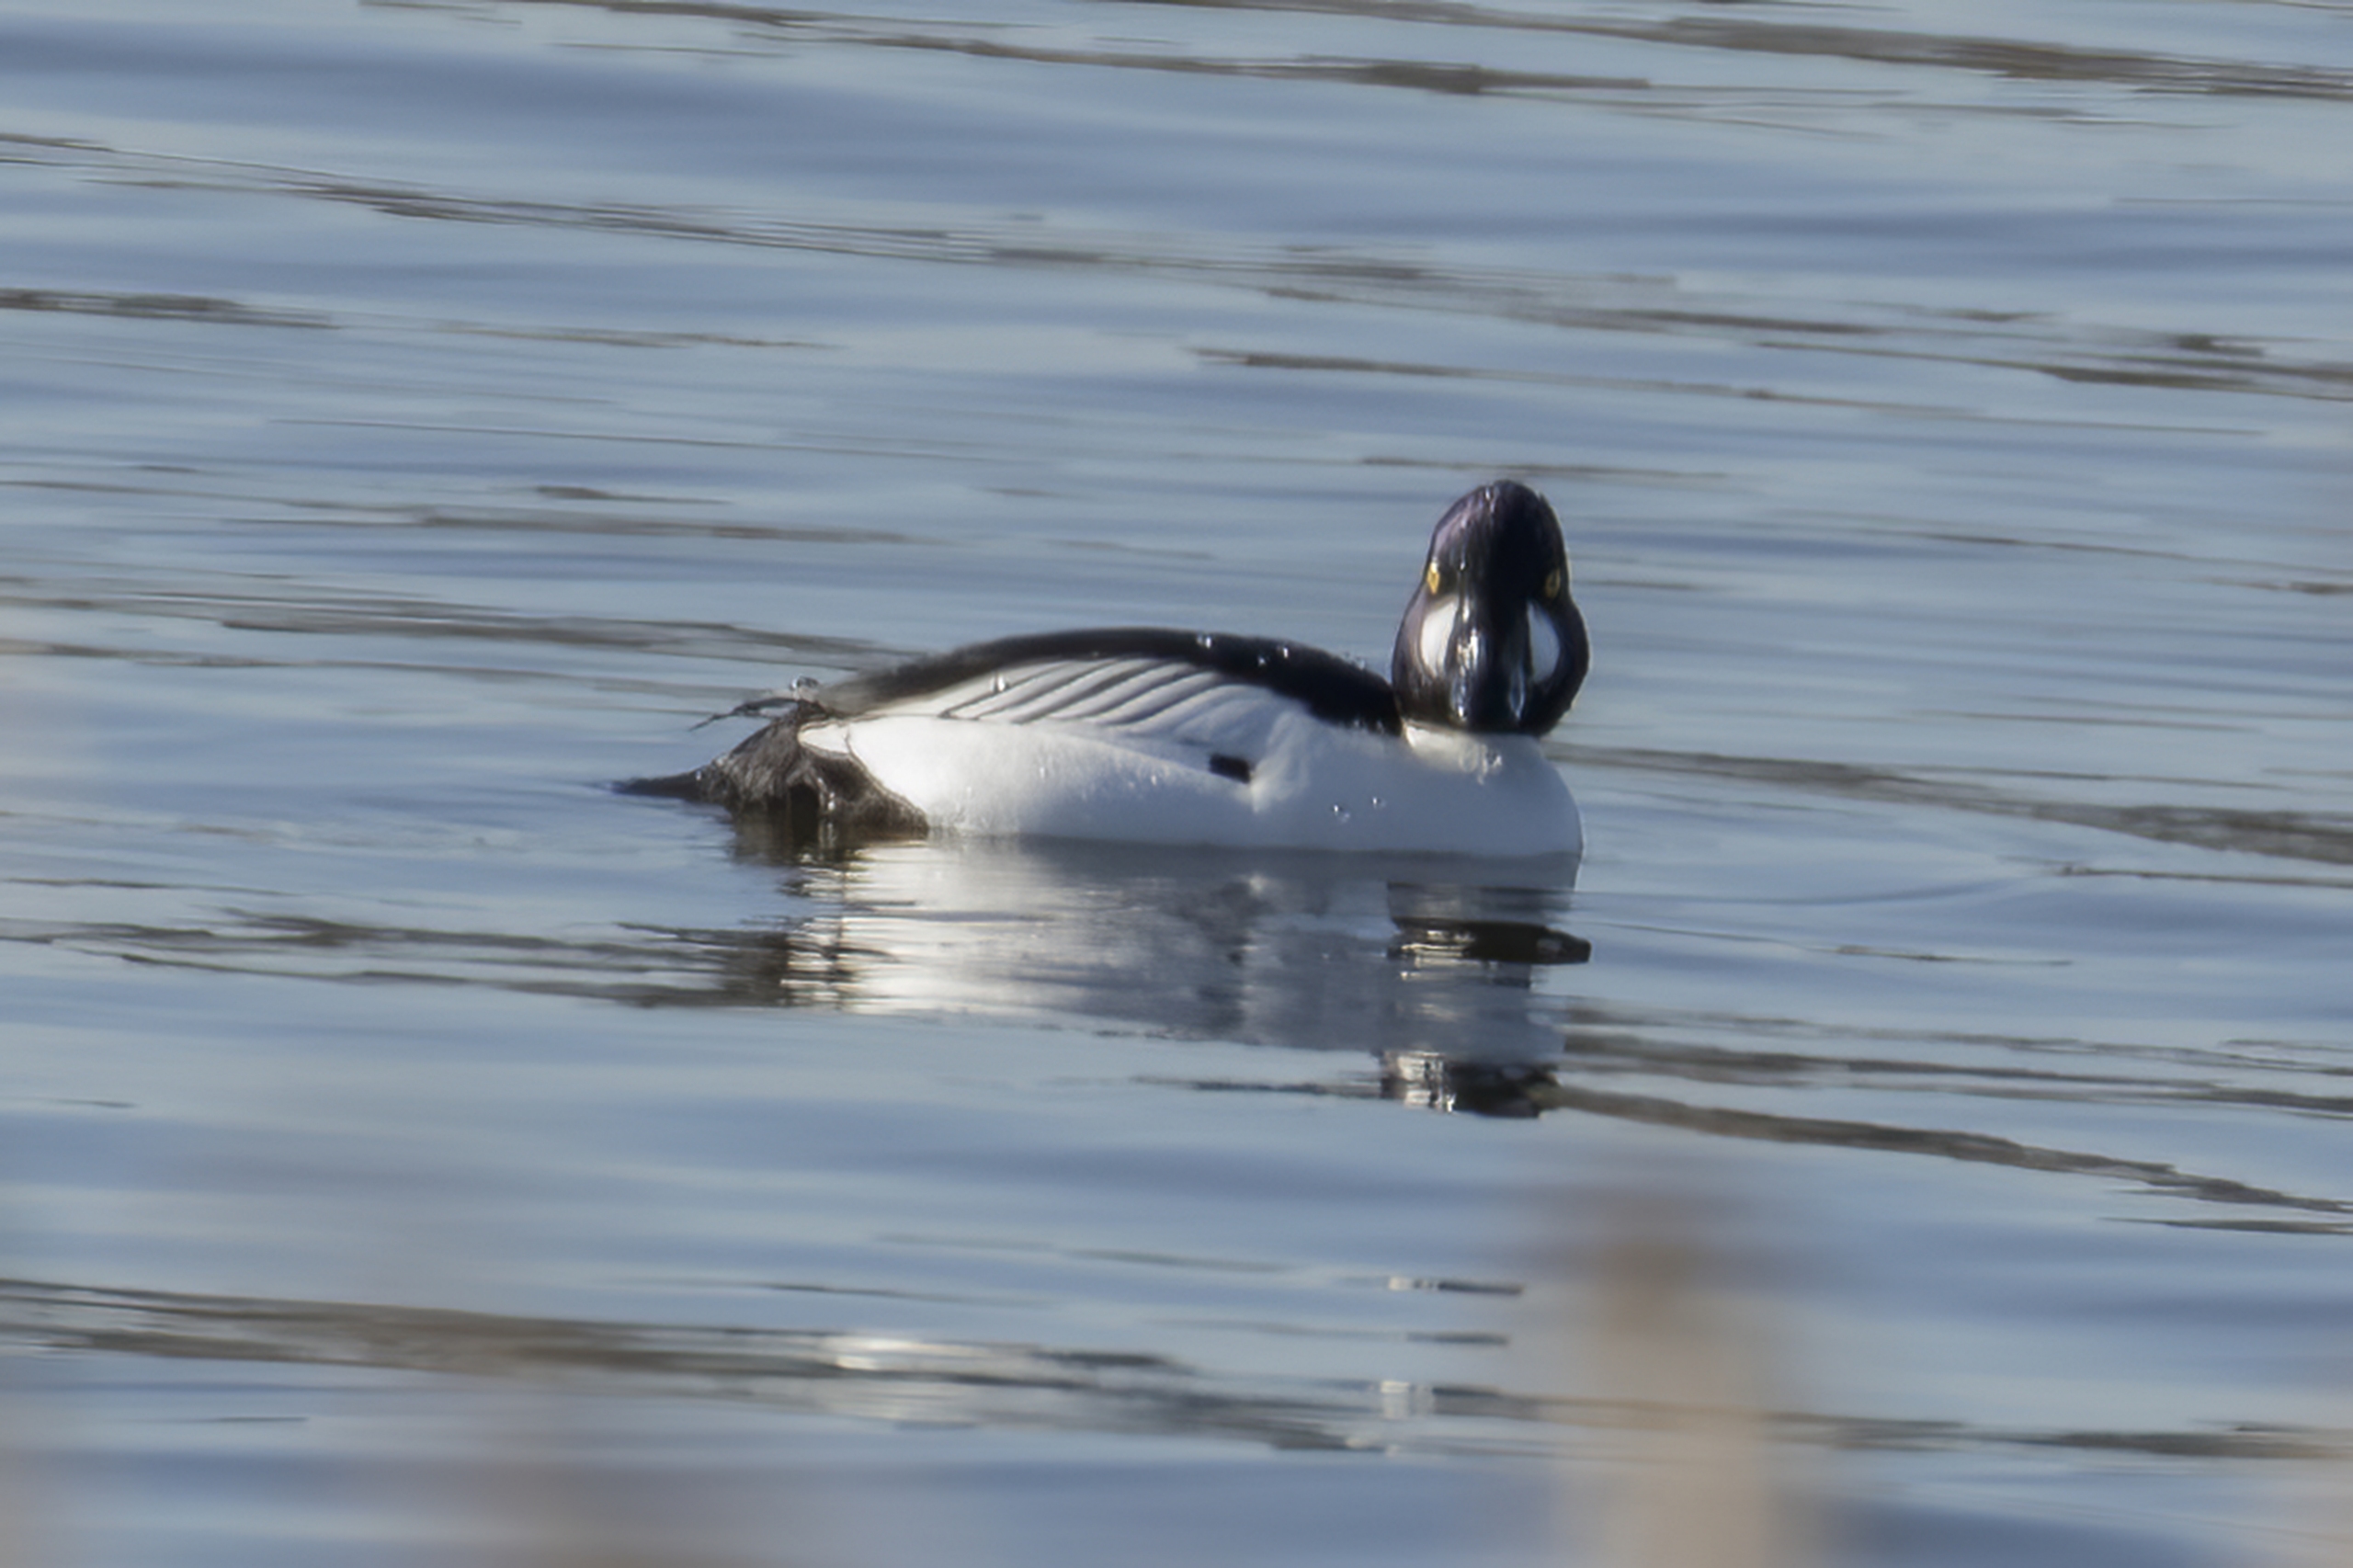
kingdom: Animalia
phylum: Chordata
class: Aves
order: Anseriformes
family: Anatidae
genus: Bucephala
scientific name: Bucephala clangula
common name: Hvinand
